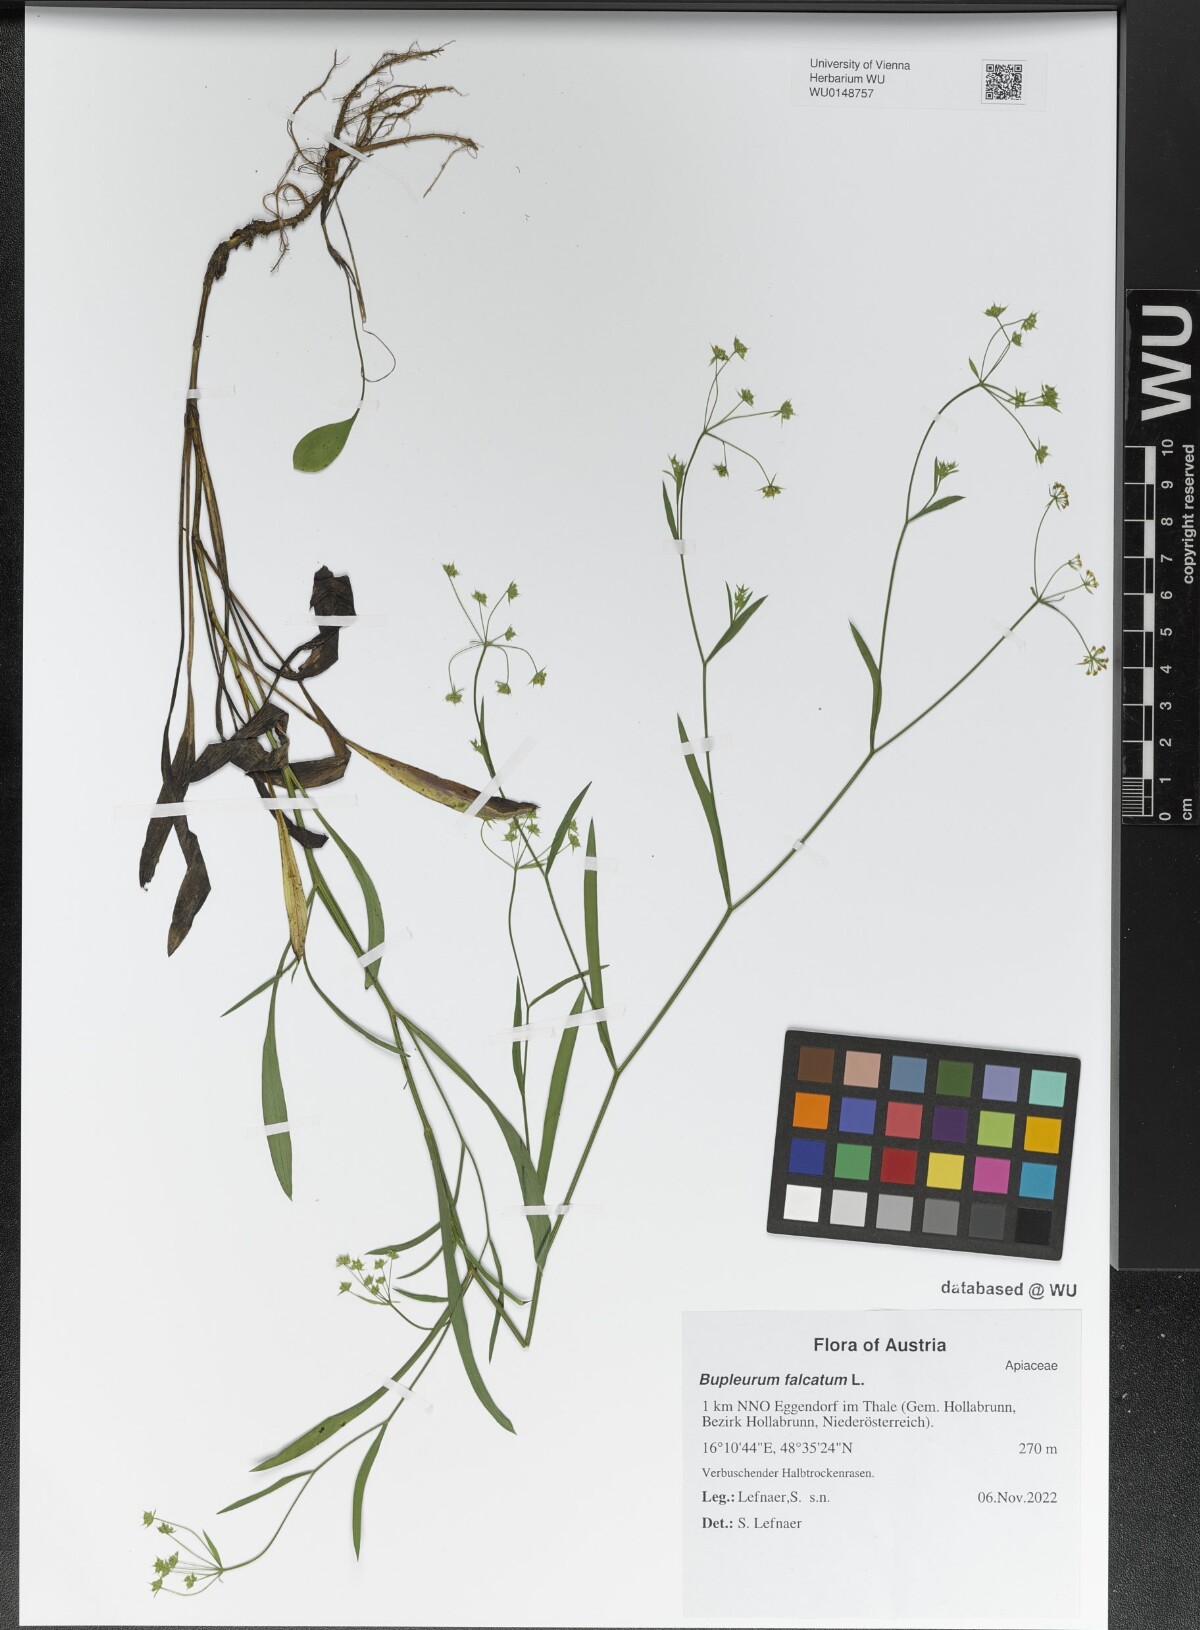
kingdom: Plantae
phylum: Tracheophyta
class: Magnoliopsida
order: Apiales
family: Apiaceae
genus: Bupleurum
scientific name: Bupleurum falcatum
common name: Sickle-leaved hare's-ear
